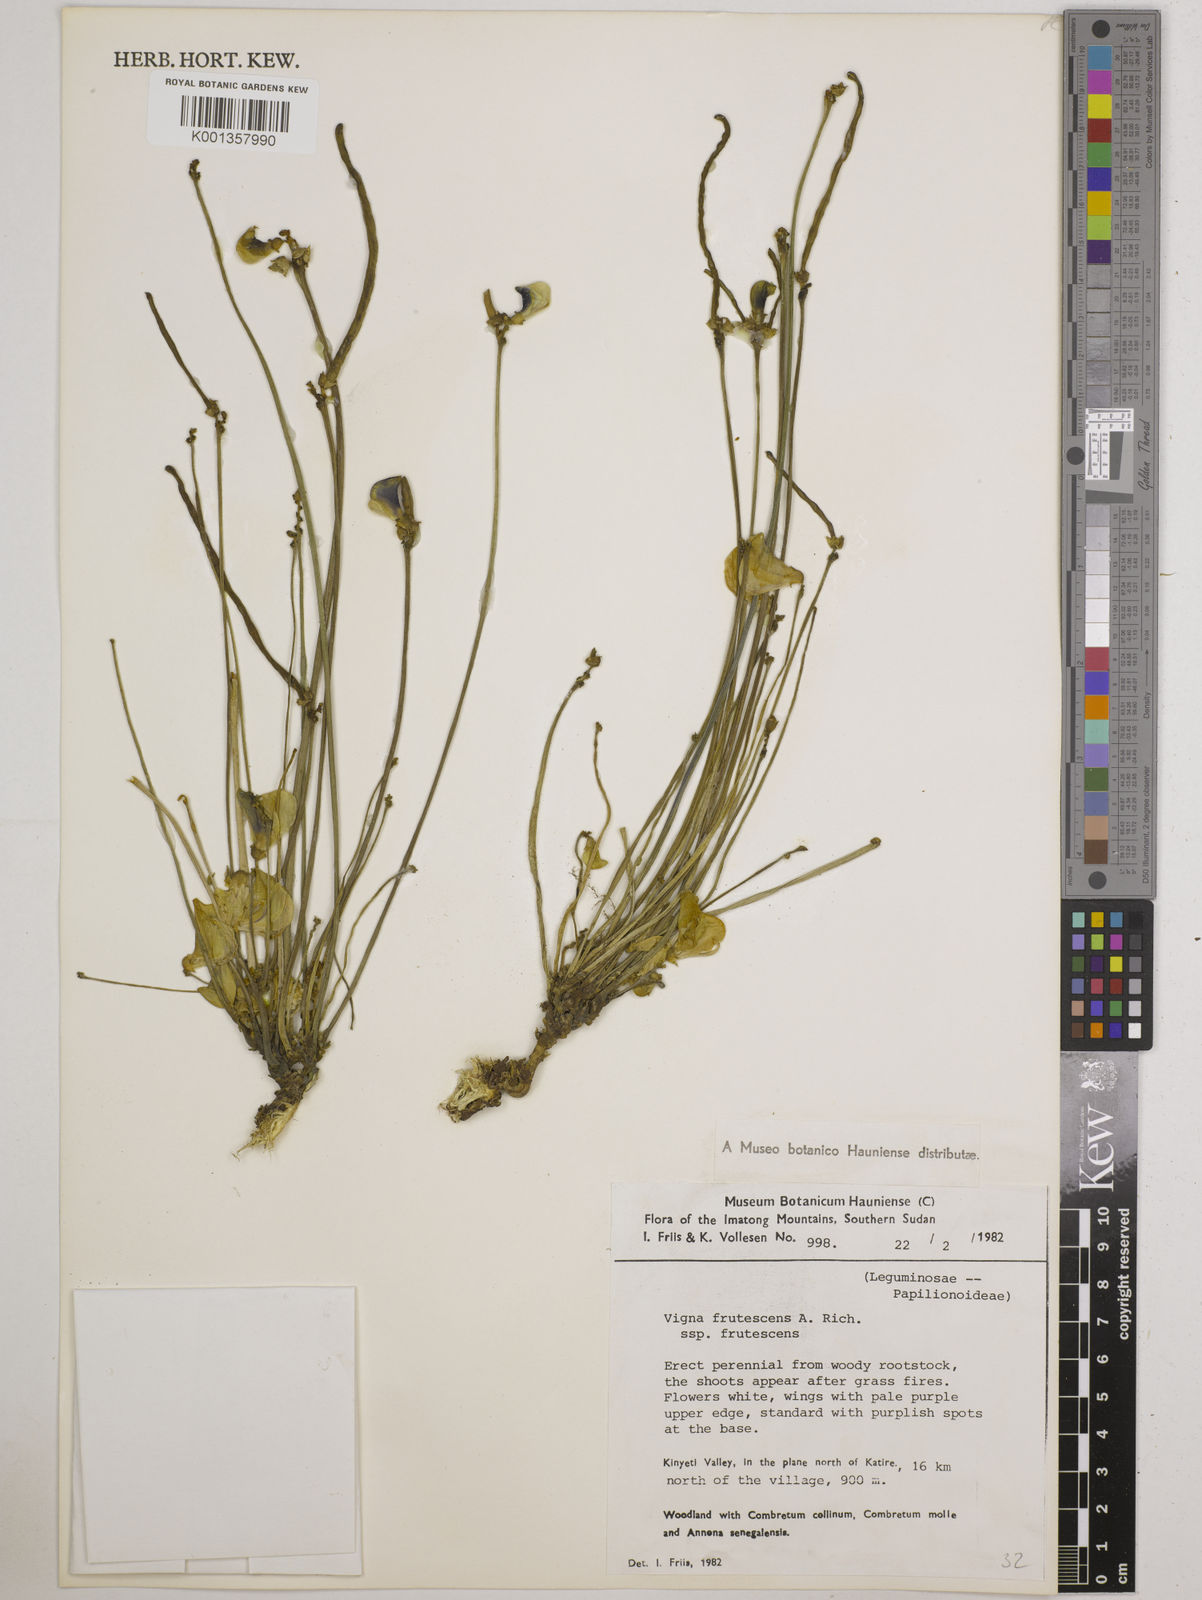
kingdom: Plantae
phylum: Tracheophyta
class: Magnoliopsida
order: Fabales
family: Fabaceae
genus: Vigna
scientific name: Vigna frutescens
